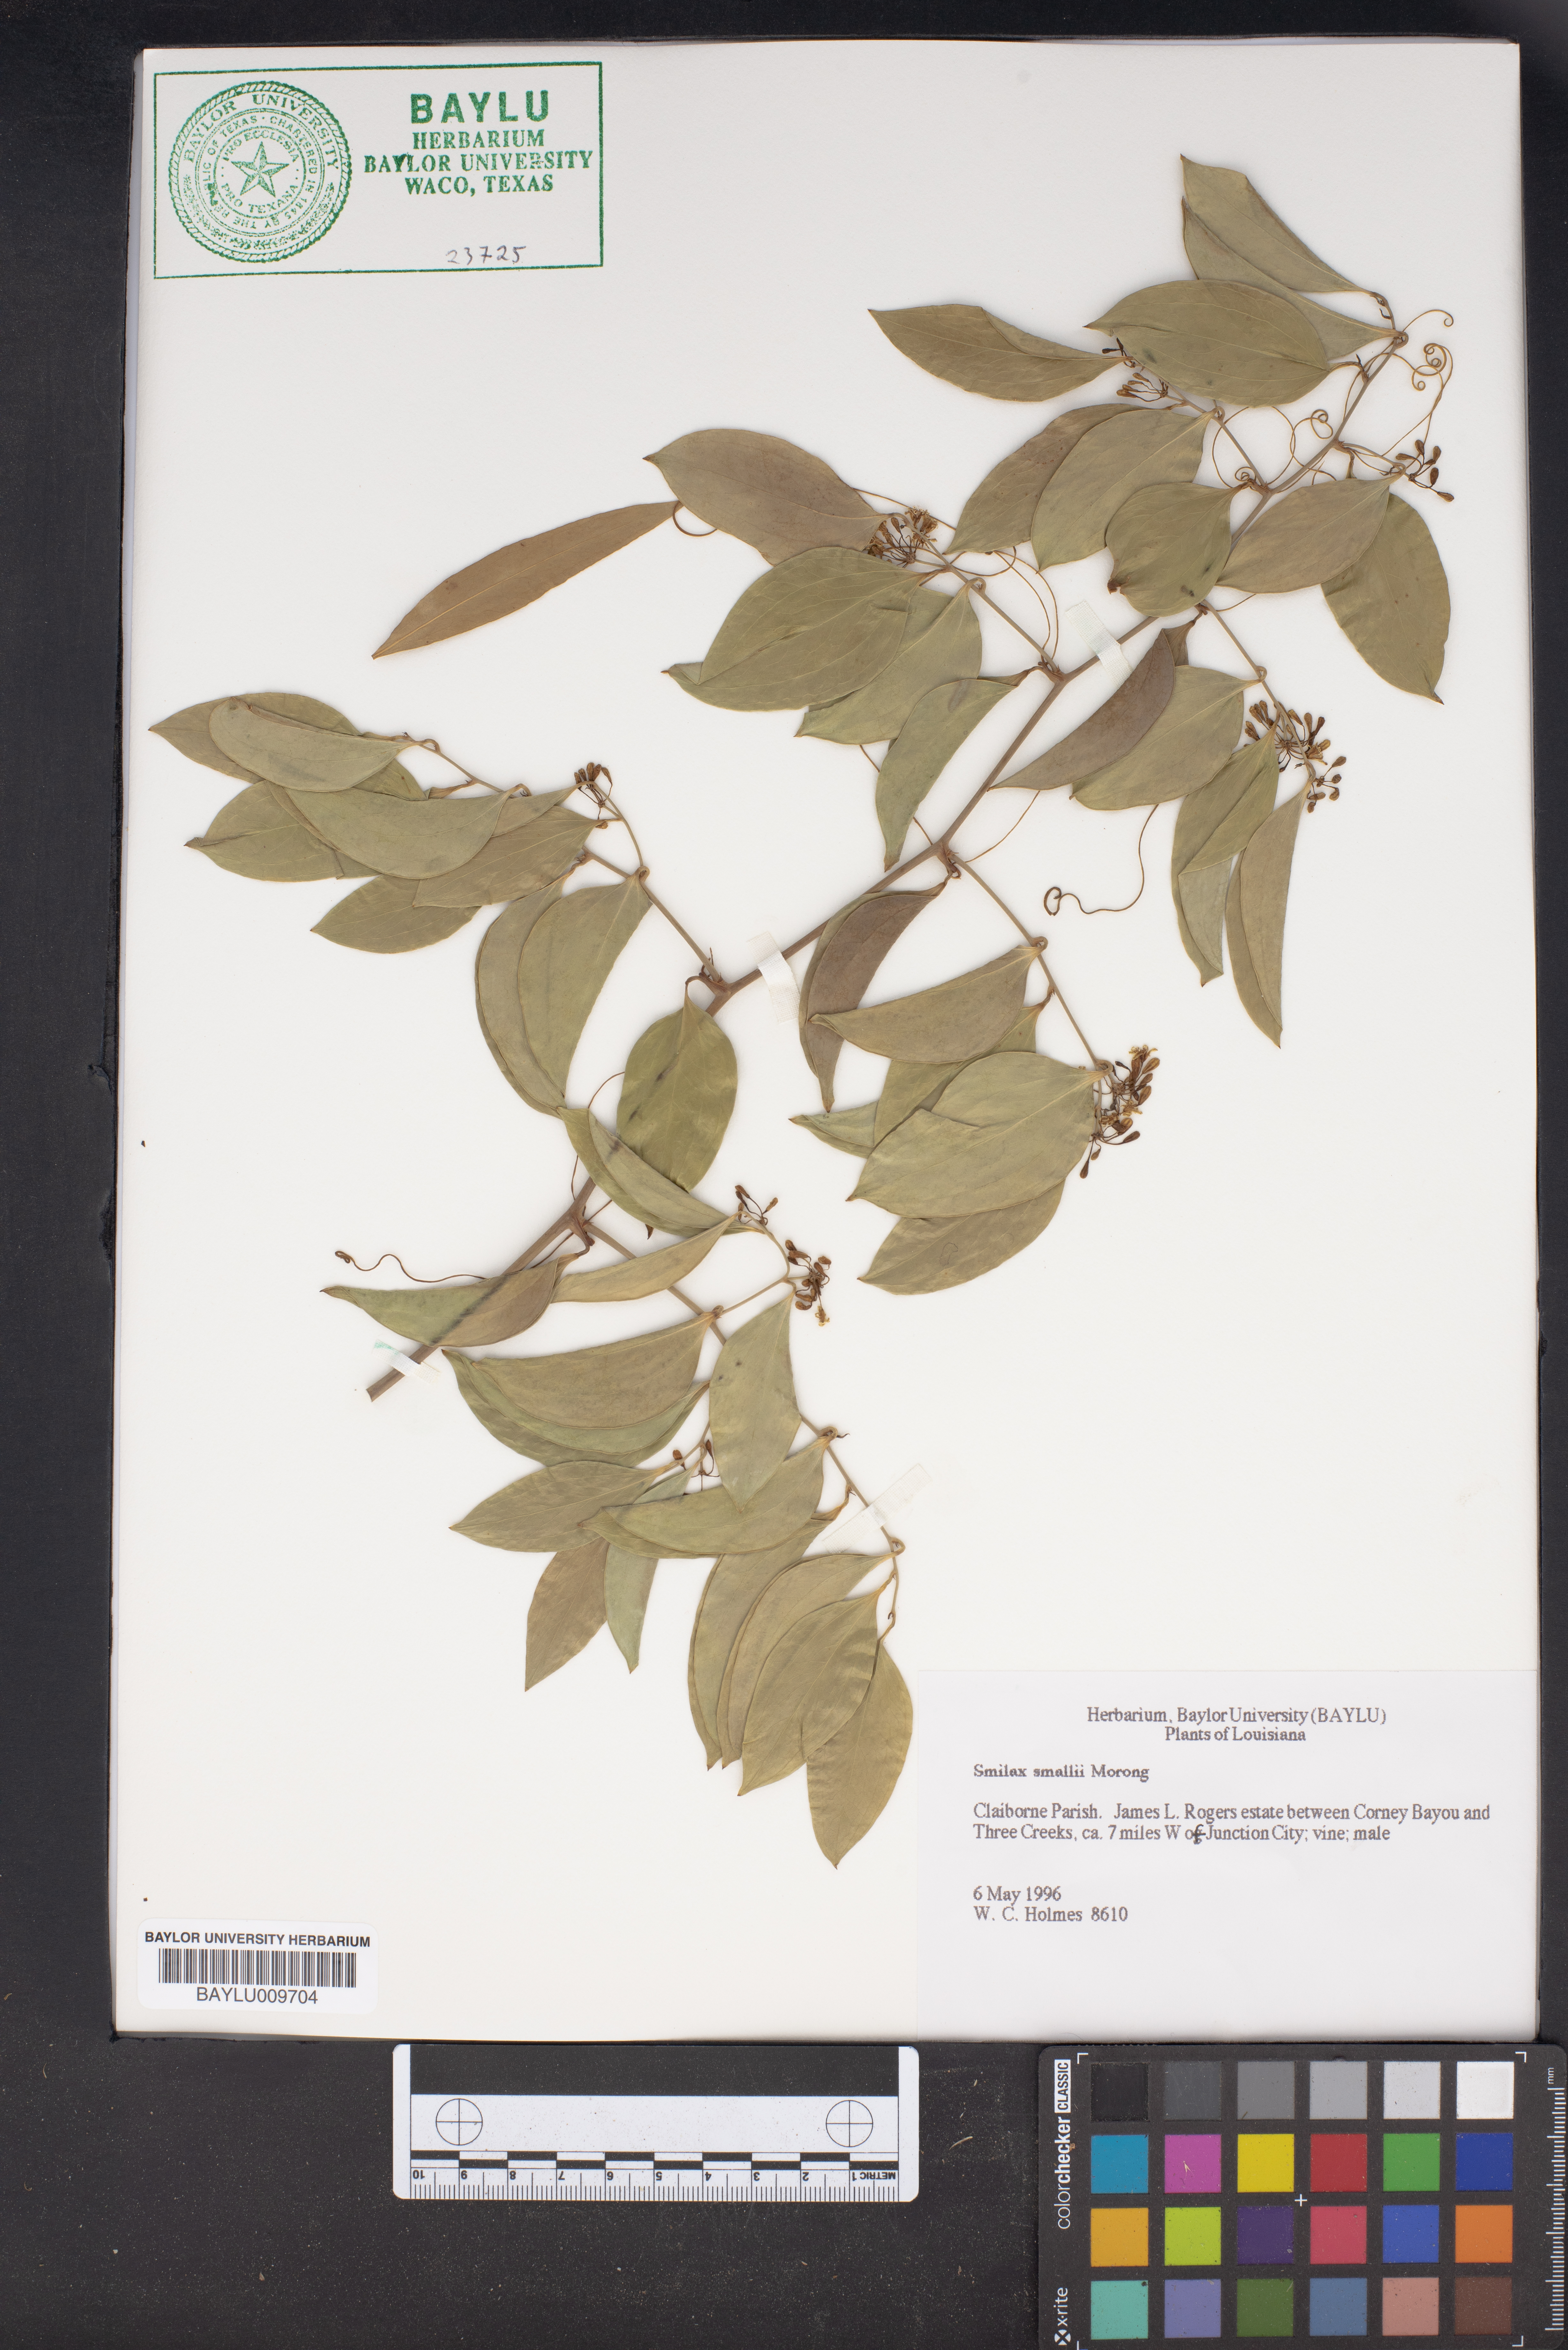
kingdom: Plantae
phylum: Tracheophyta
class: Liliopsida
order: Liliales
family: Smilacaceae
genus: Smilax
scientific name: Smilax maritima
